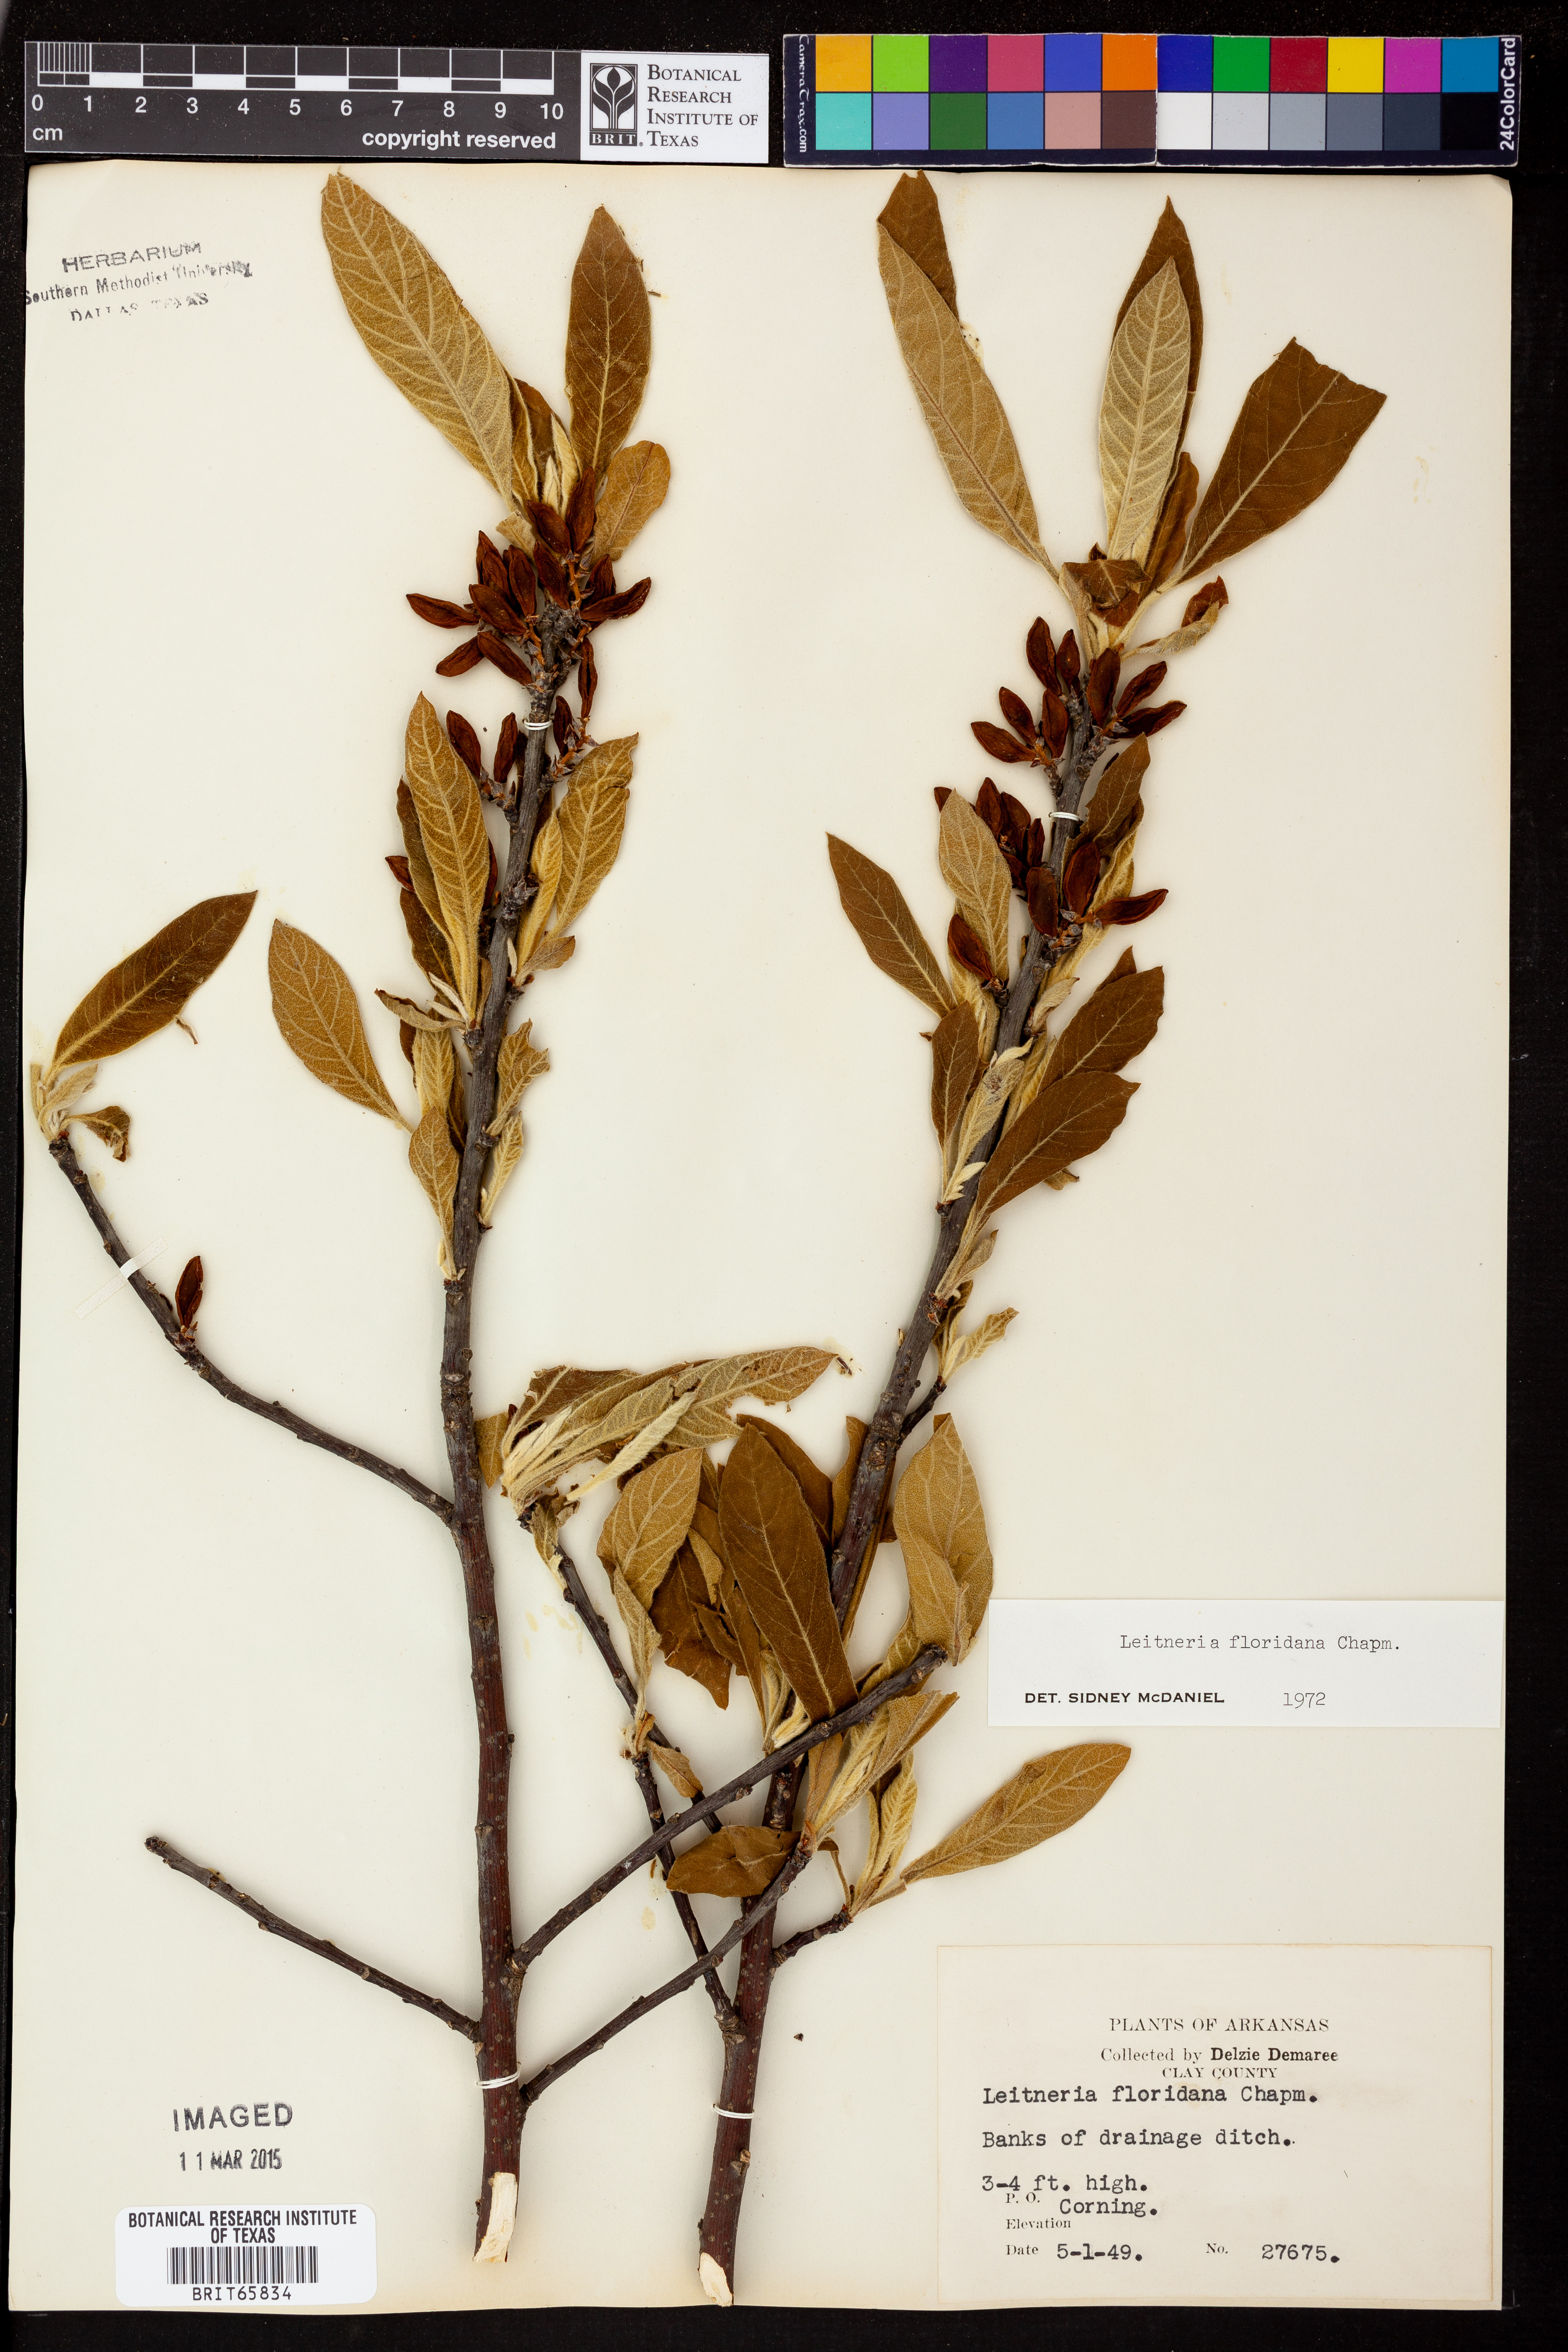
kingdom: Plantae
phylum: Tracheophyta
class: Magnoliopsida
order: Sapindales
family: Simaroubaceae
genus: Leitneria
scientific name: Leitneria floridana
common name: Corkwood
